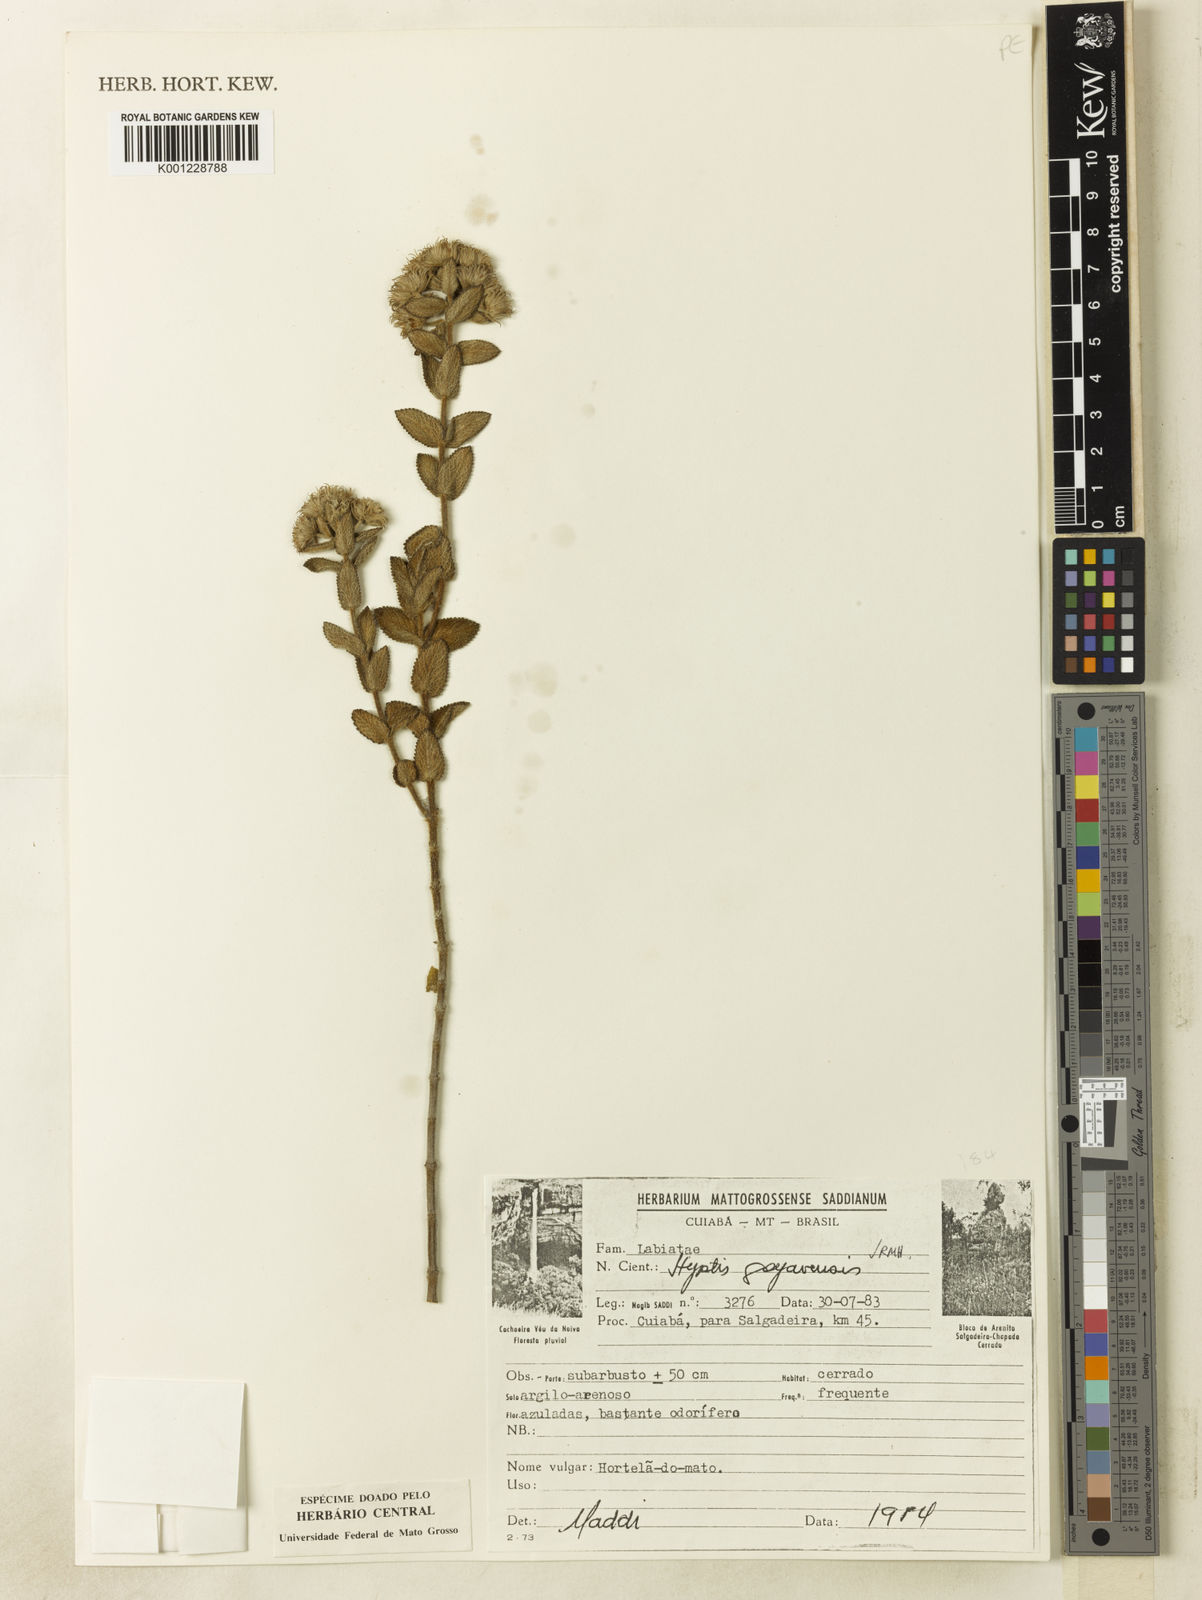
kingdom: Plantae
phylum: Tracheophyta
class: Magnoliopsida
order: Lamiales
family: Lamiaceae
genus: Hyptis
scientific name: Hyptis goyazensis
